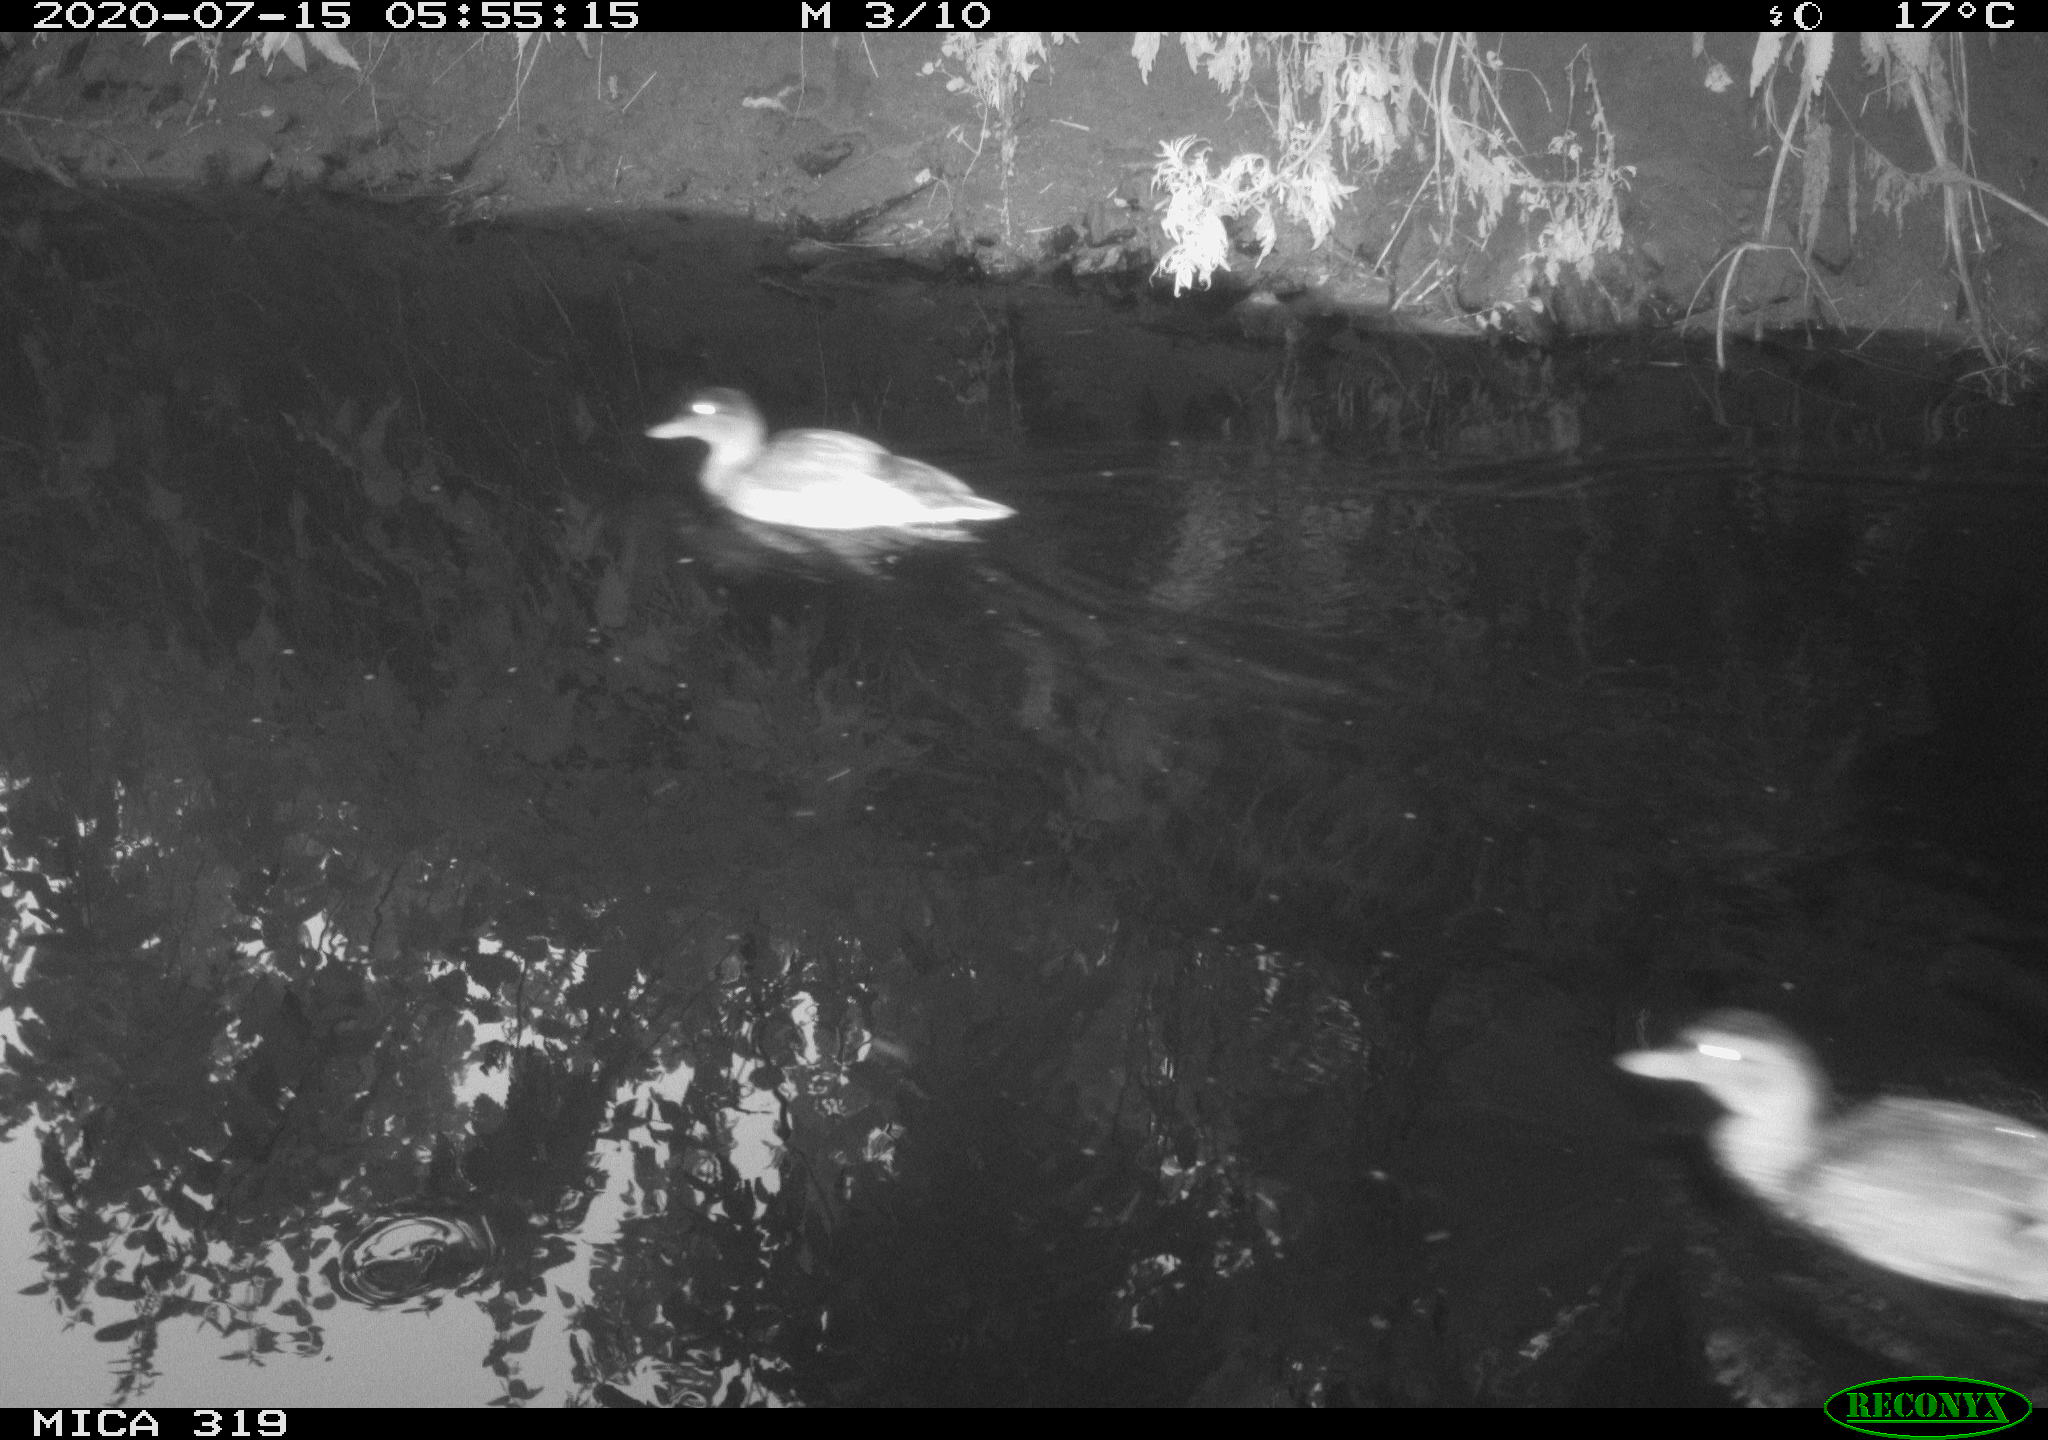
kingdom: Animalia
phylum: Chordata
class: Aves
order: Anseriformes
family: Anatidae
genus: Mareca
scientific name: Mareca strepera
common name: Gadwall
